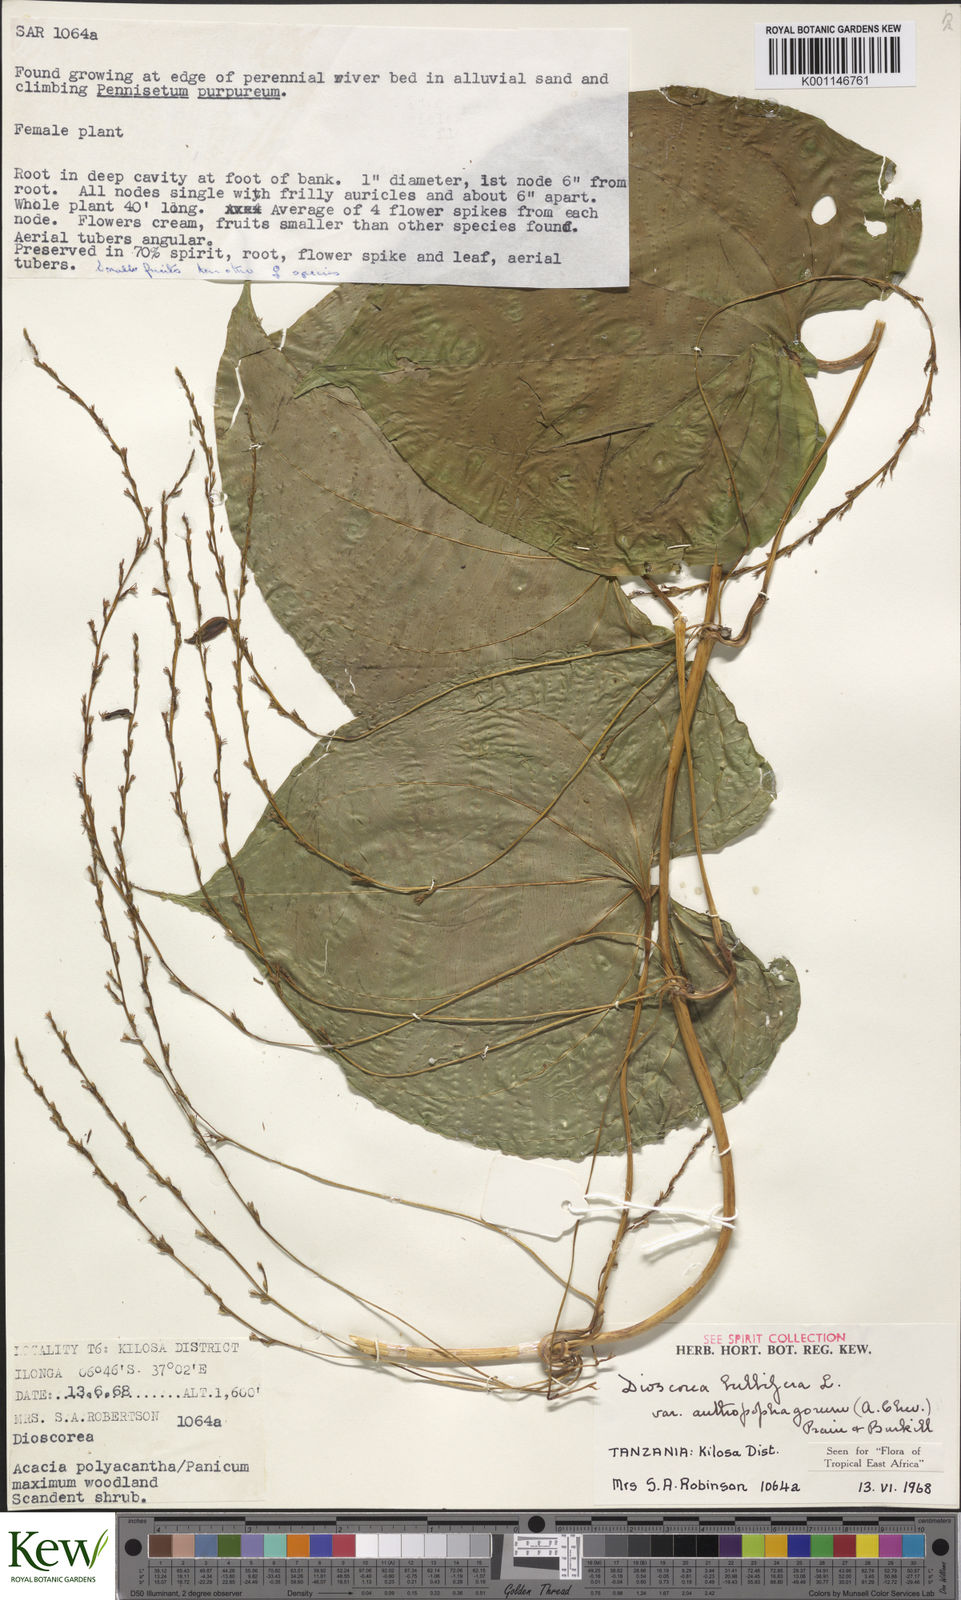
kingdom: Plantae
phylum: Tracheophyta
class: Liliopsida
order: Dioscoreales
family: Dioscoreaceae
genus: Dioscorea
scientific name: Dioscorea bulbifera
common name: Air yam
